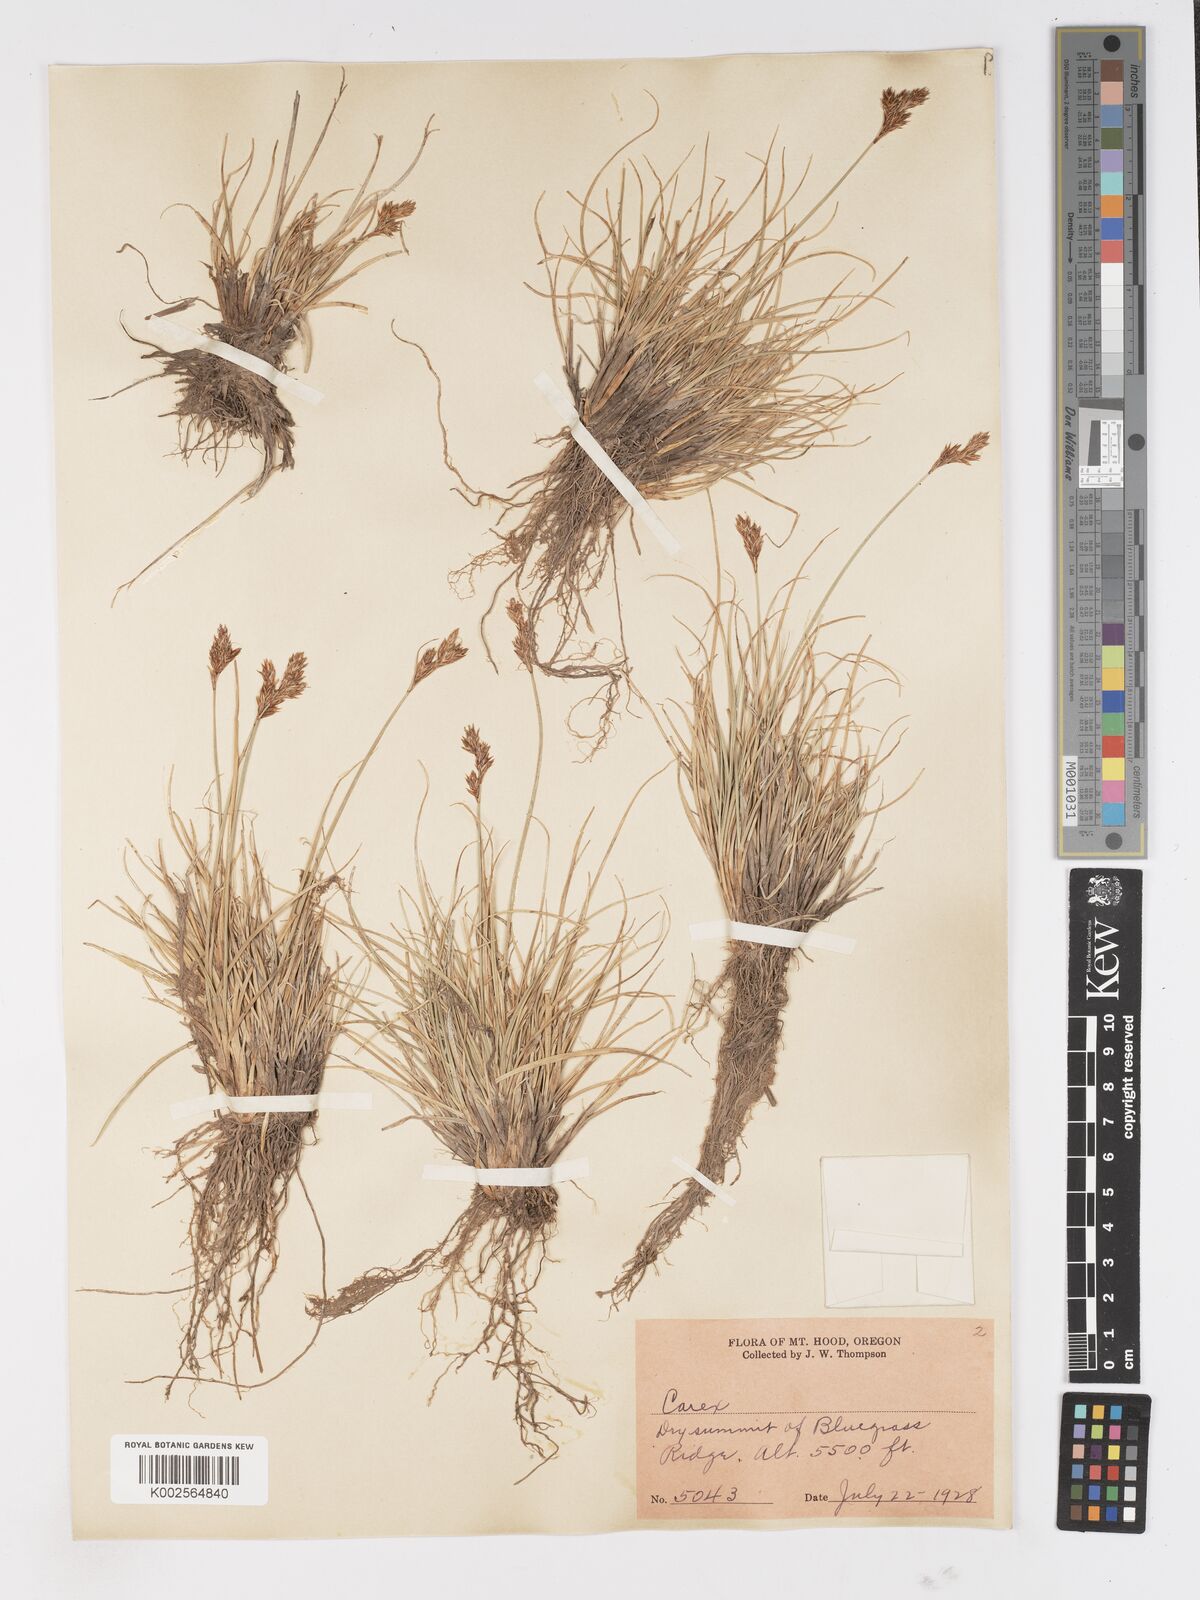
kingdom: Plantae
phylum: Tracheophyta
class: Liliopsida
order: Poales
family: Cyperaceae
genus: Carex
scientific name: Carex
